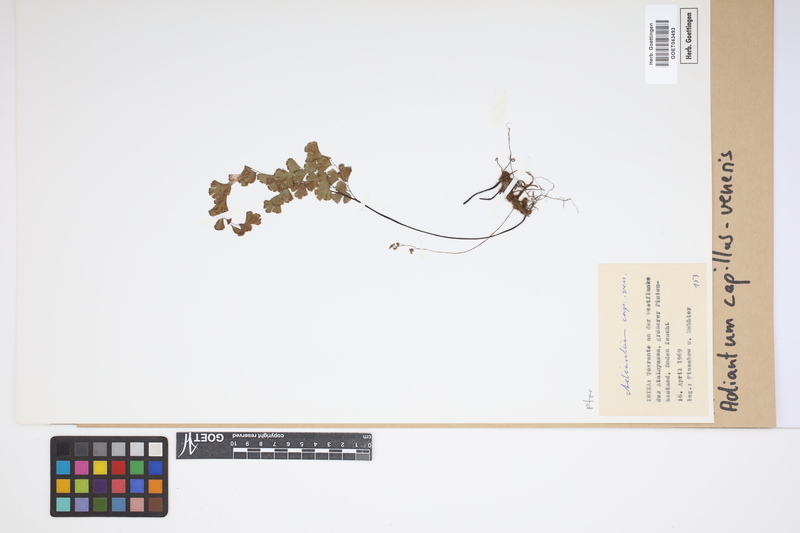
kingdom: Plantae
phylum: Tracheophyta
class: Polypodiopsida
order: Polypodiales
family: Pteridaceae
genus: Adiantum
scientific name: Adiantum capillus-veneris
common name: Maidenhair fern
